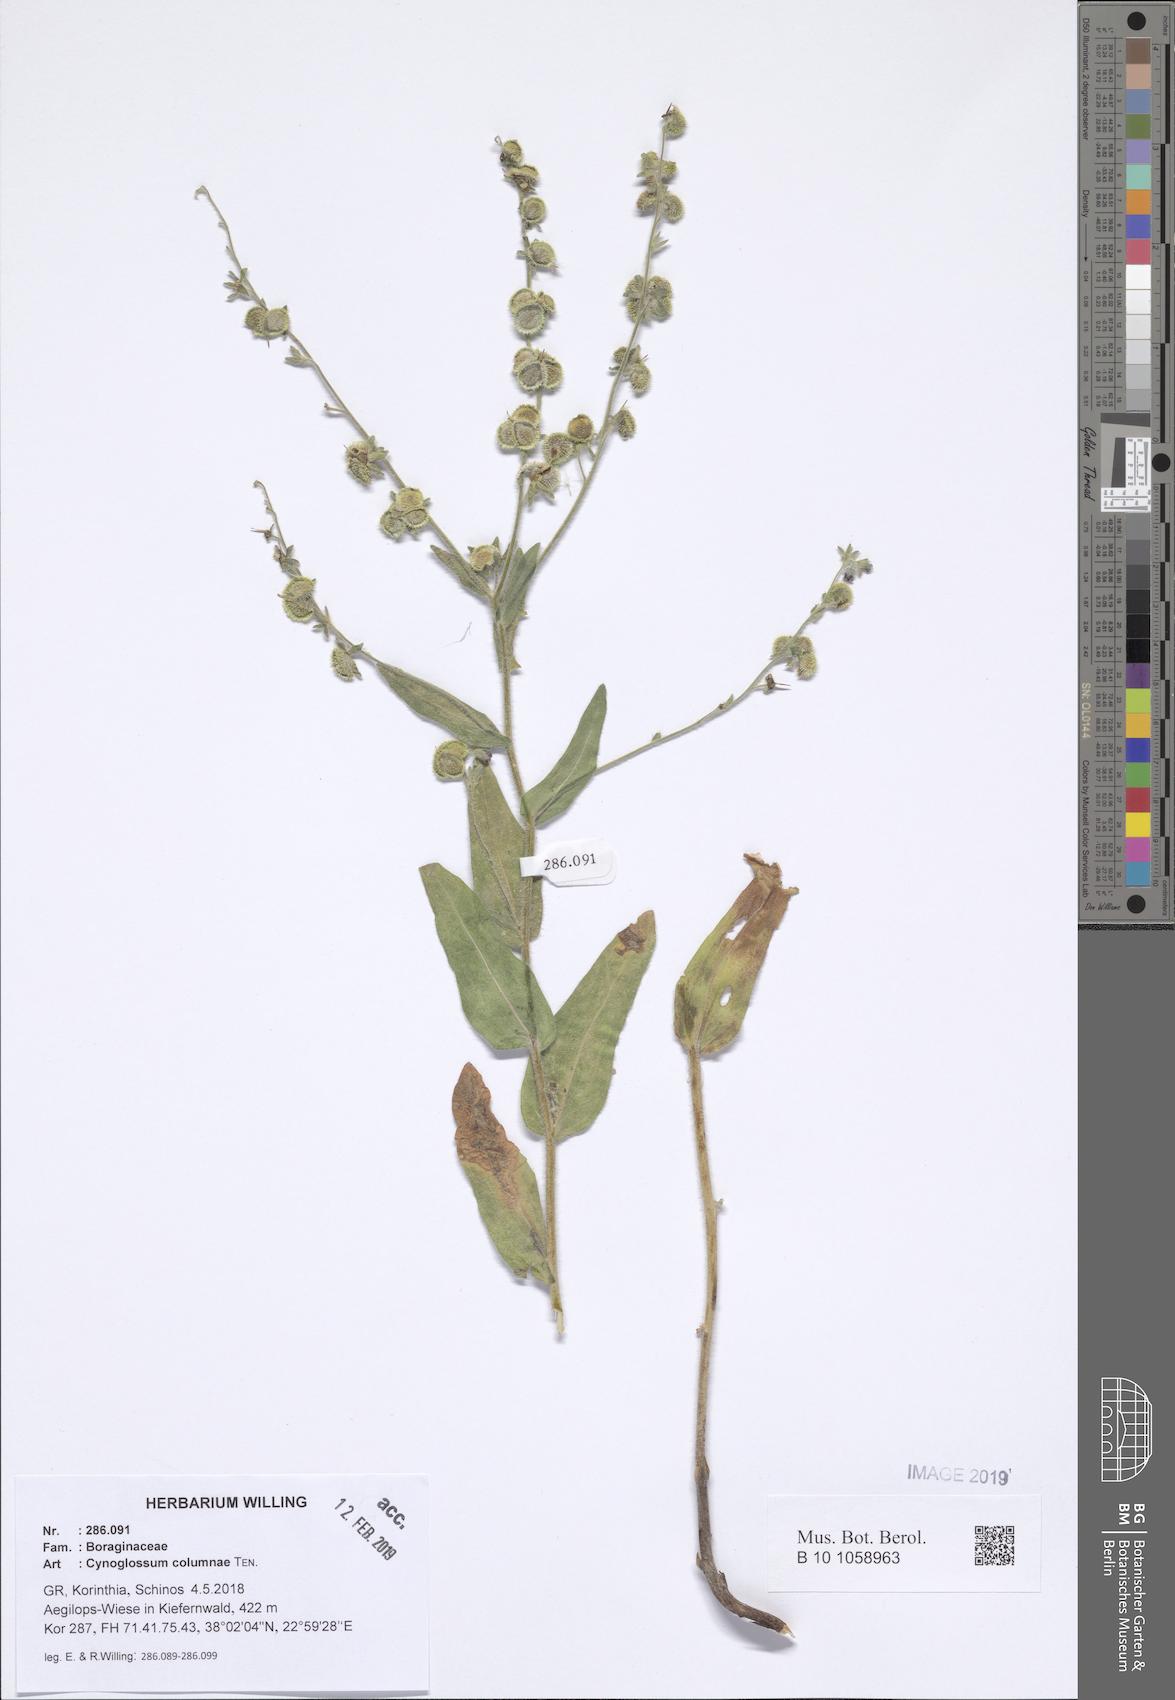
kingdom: Plantae
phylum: Tracheophyta
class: Magnoliopsida
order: Boraginales
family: Boraginaceae
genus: Rindera
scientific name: Rindera columnae
